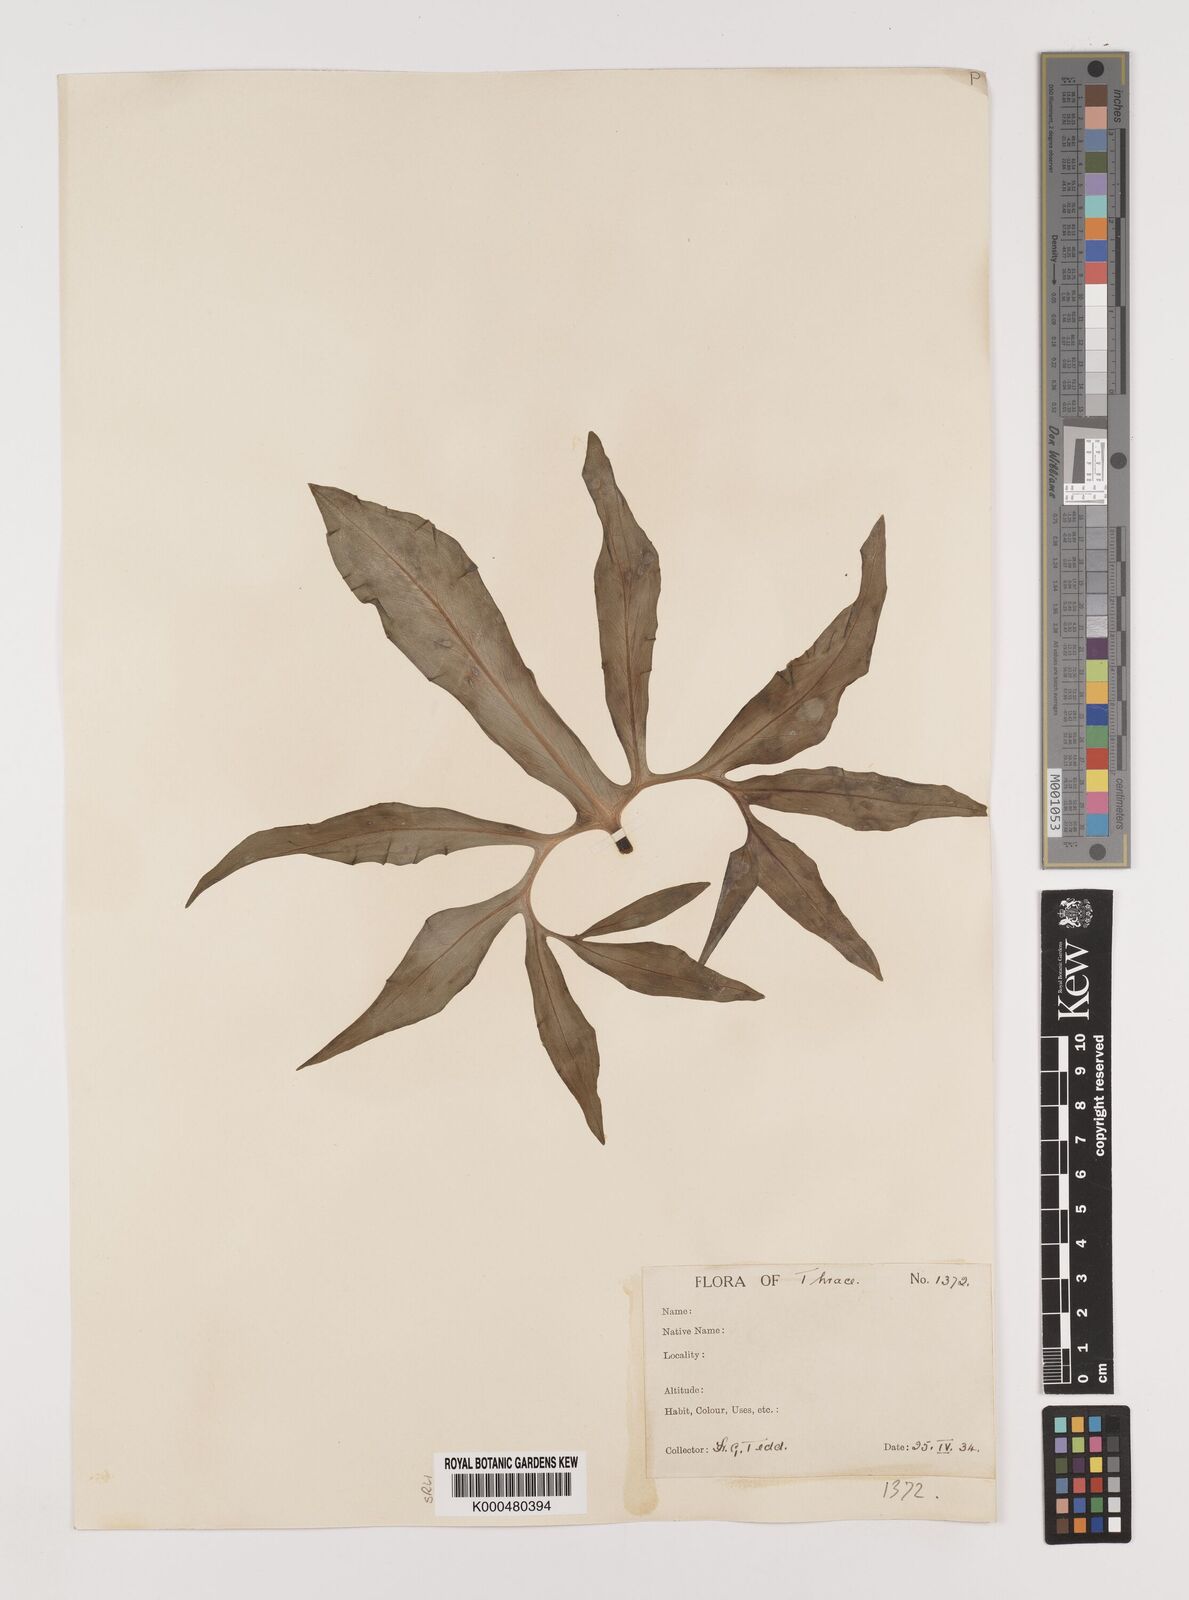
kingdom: Plantae
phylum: Tracheophyta
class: Liliopsida
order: Alismatales
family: Araceae
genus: Dracunculus
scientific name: Dracunculus vulgaris
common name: Dragon arum
